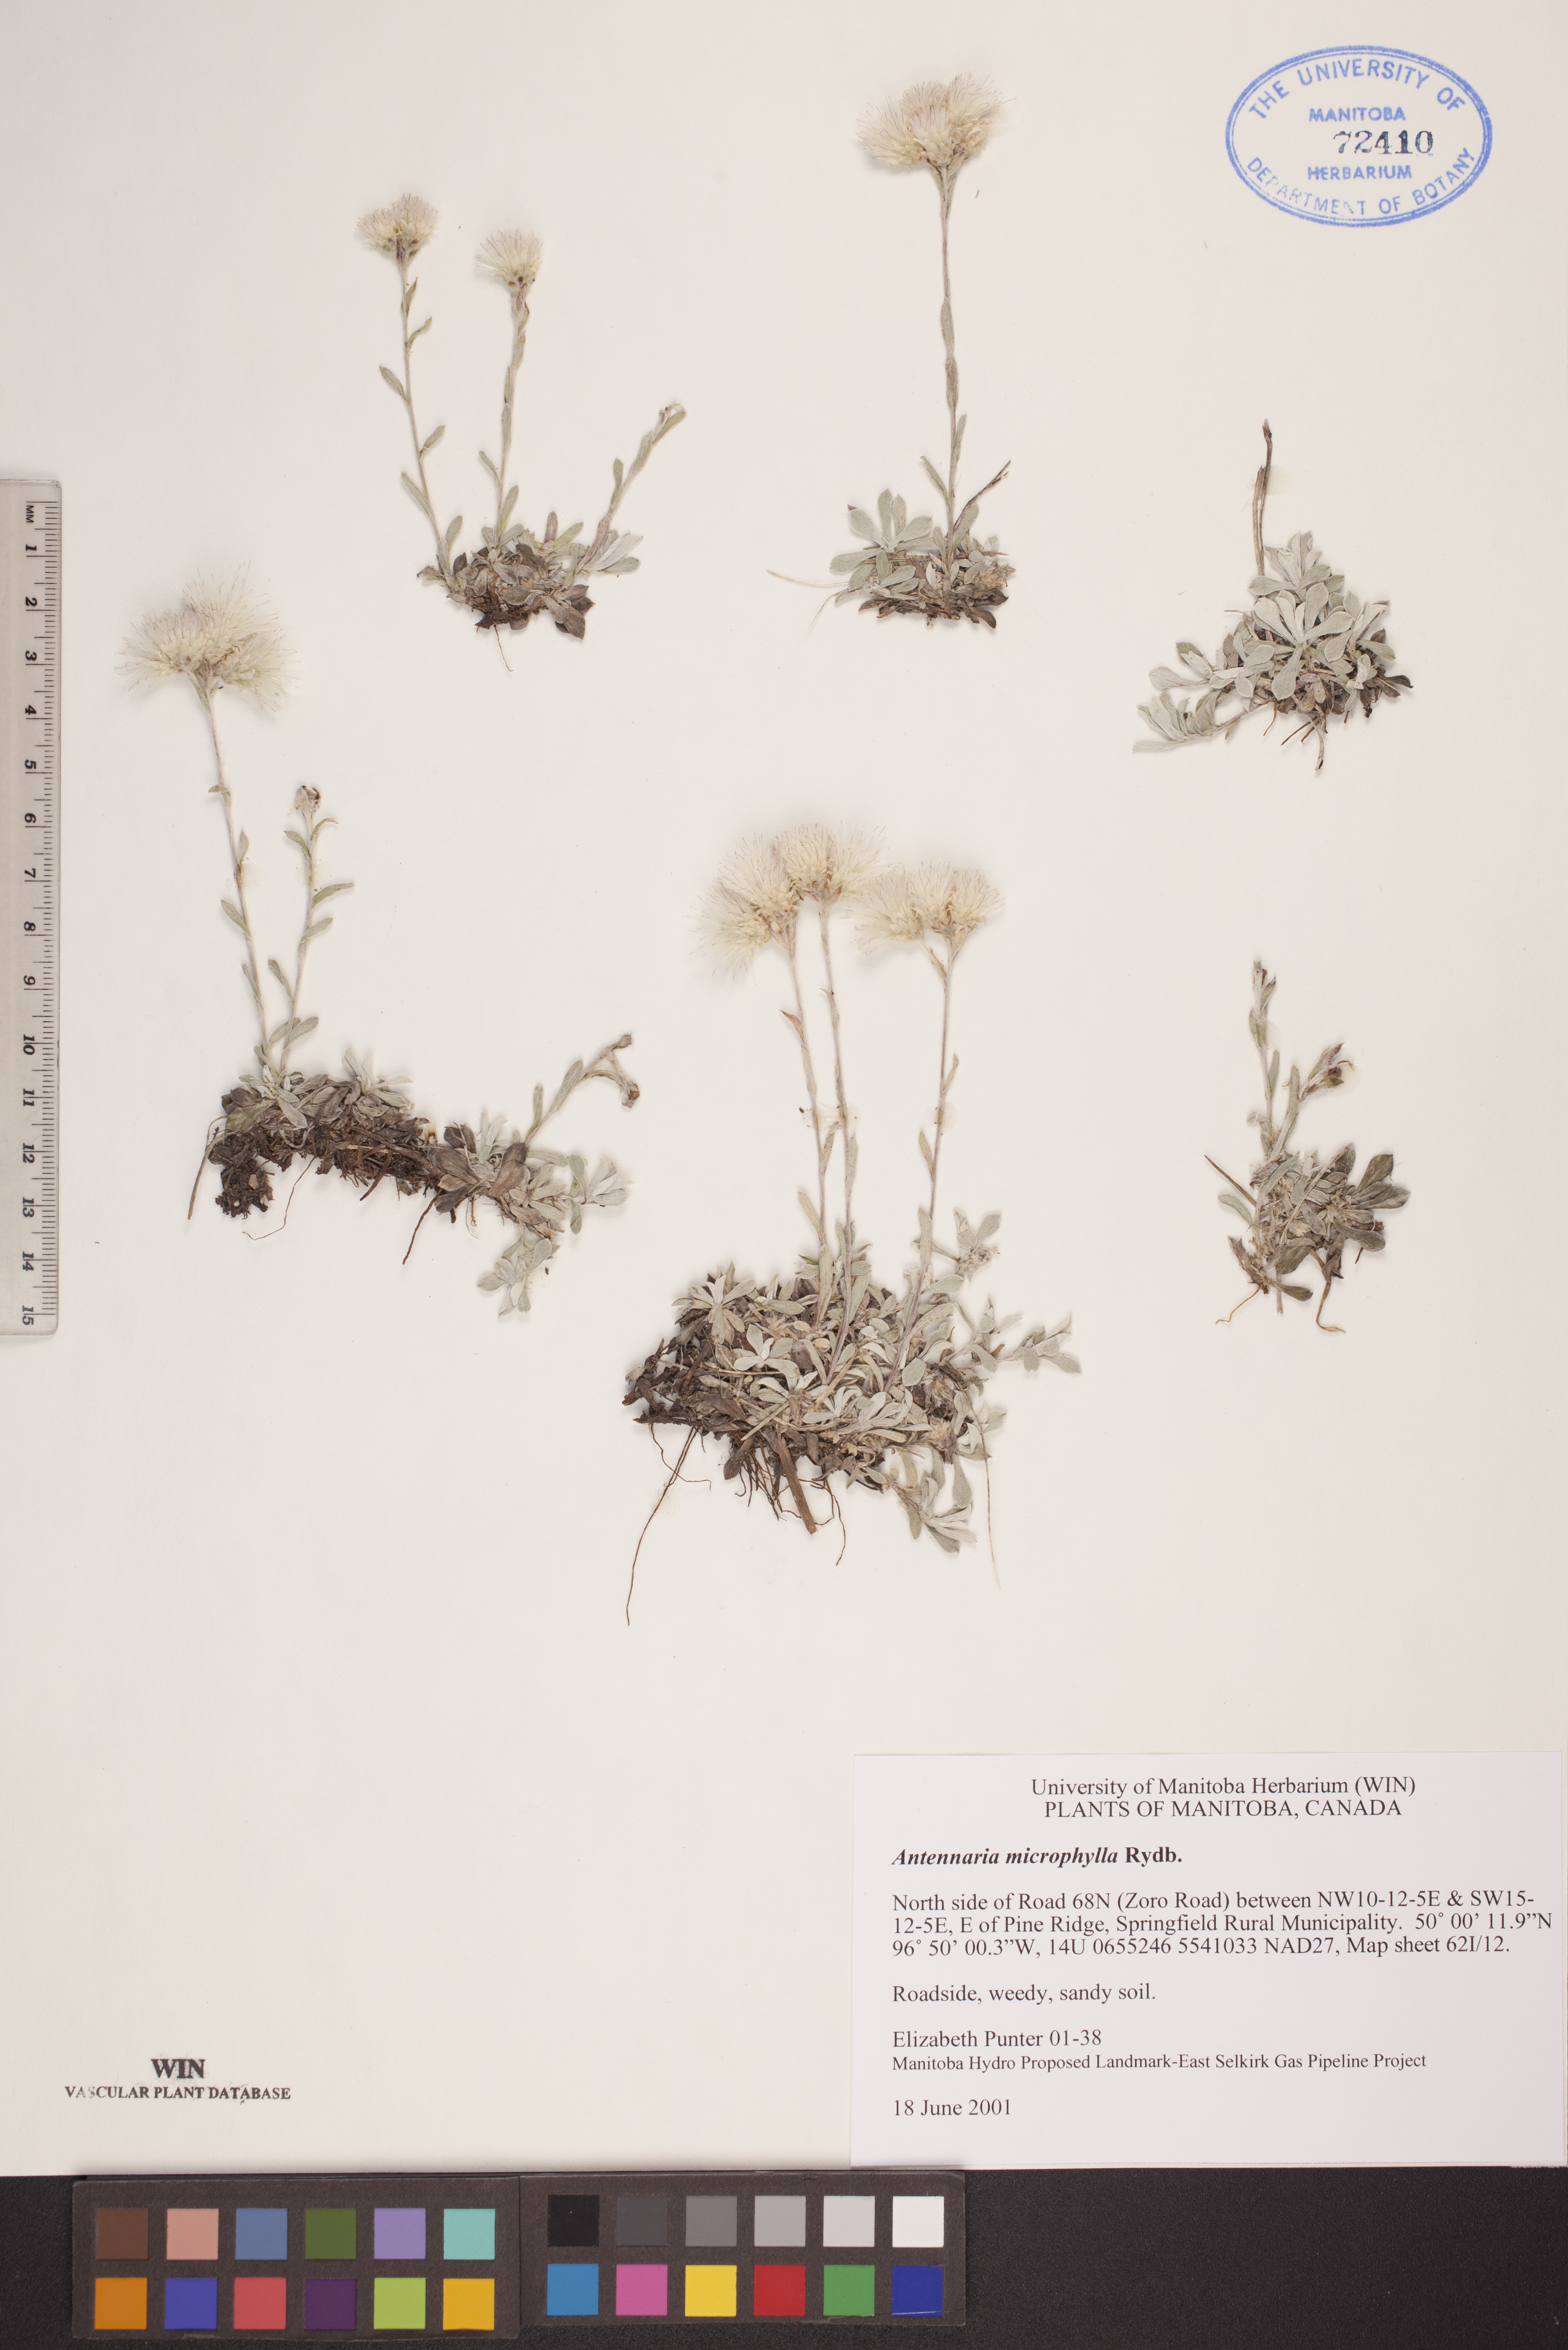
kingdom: Plantae
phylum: Tracheophyta
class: Magnoliopsida
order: Asterales
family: Asteraceae
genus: Antennaria
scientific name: Antennaria microphylla
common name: Littleleaf pussytoes
